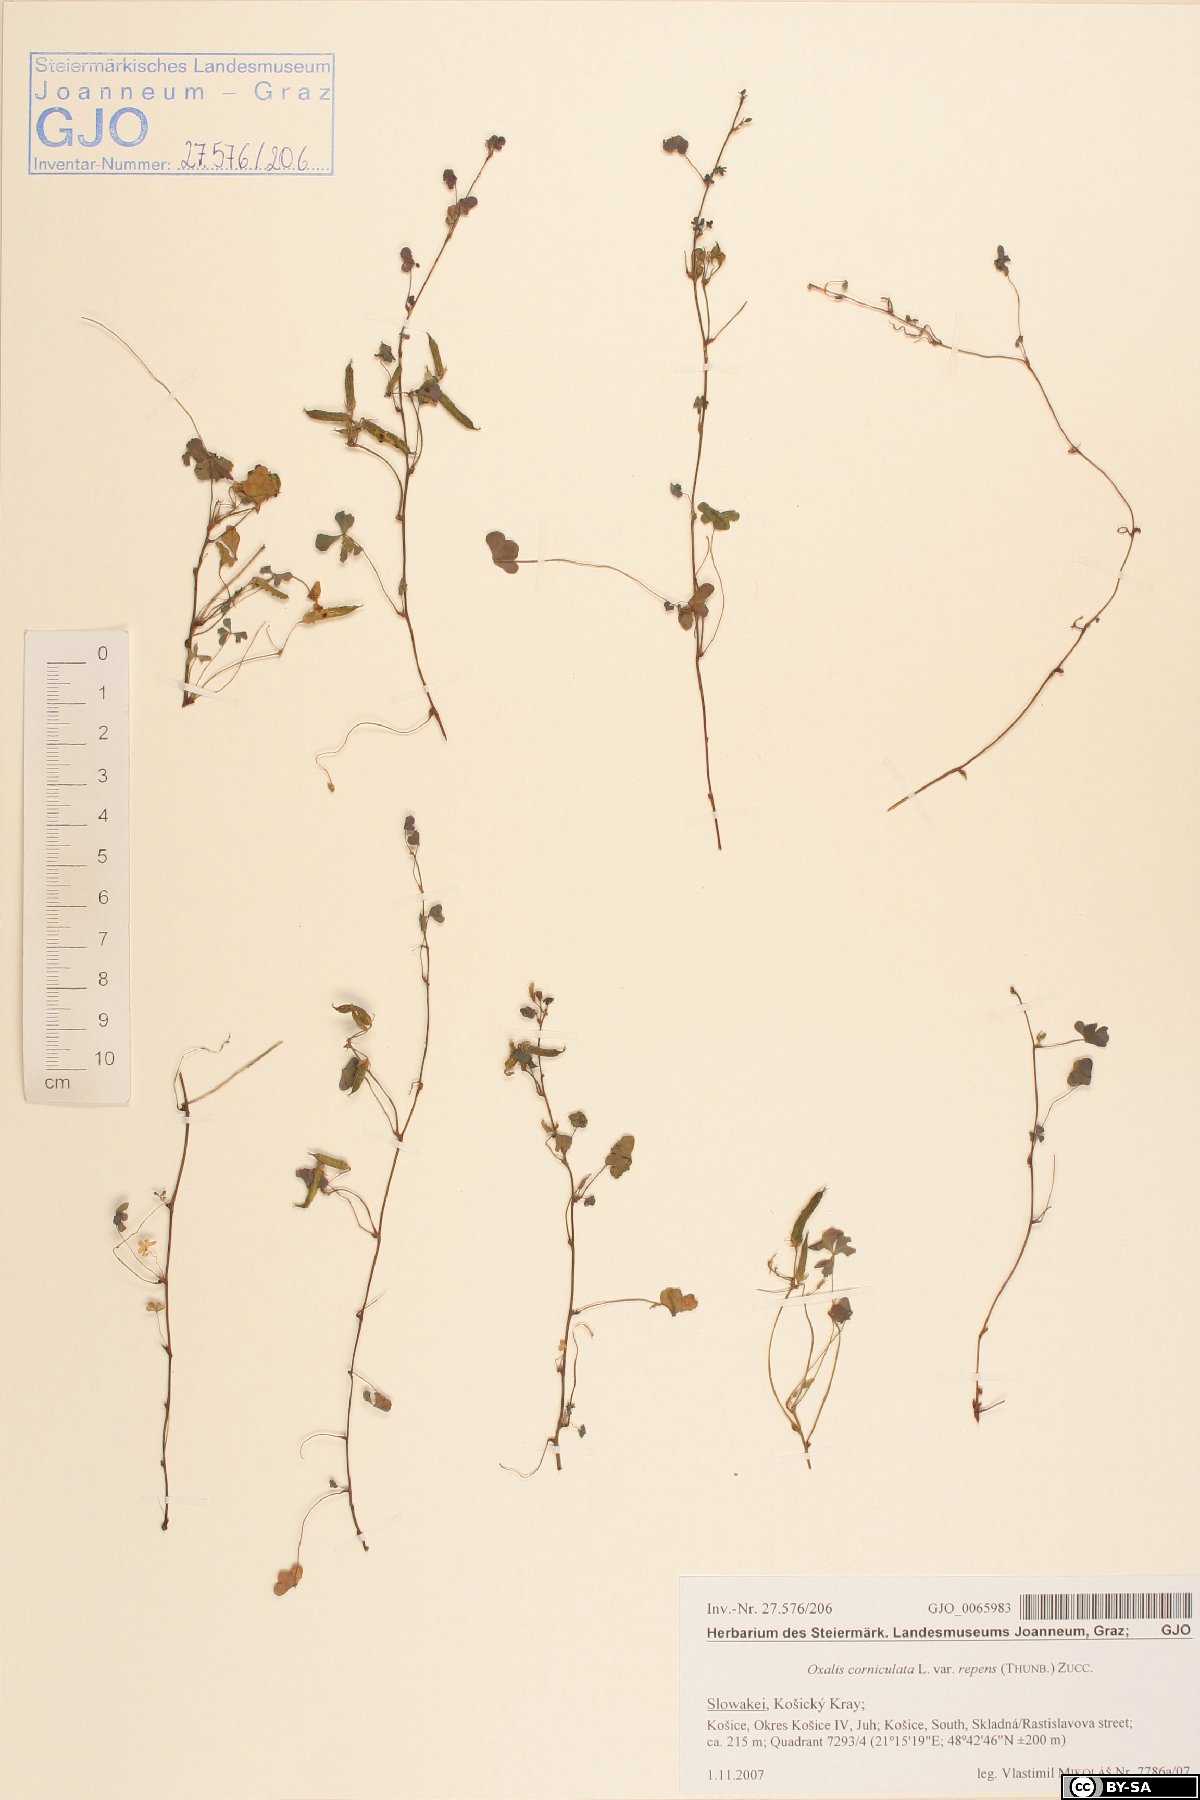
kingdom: Plantae
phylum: Tracheophyta
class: Magnoliopsida
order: Oxalidales
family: Oxalidaceae
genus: Oxalis
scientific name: Oxalis corniculata
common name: Procumbent yellow-sorrel
